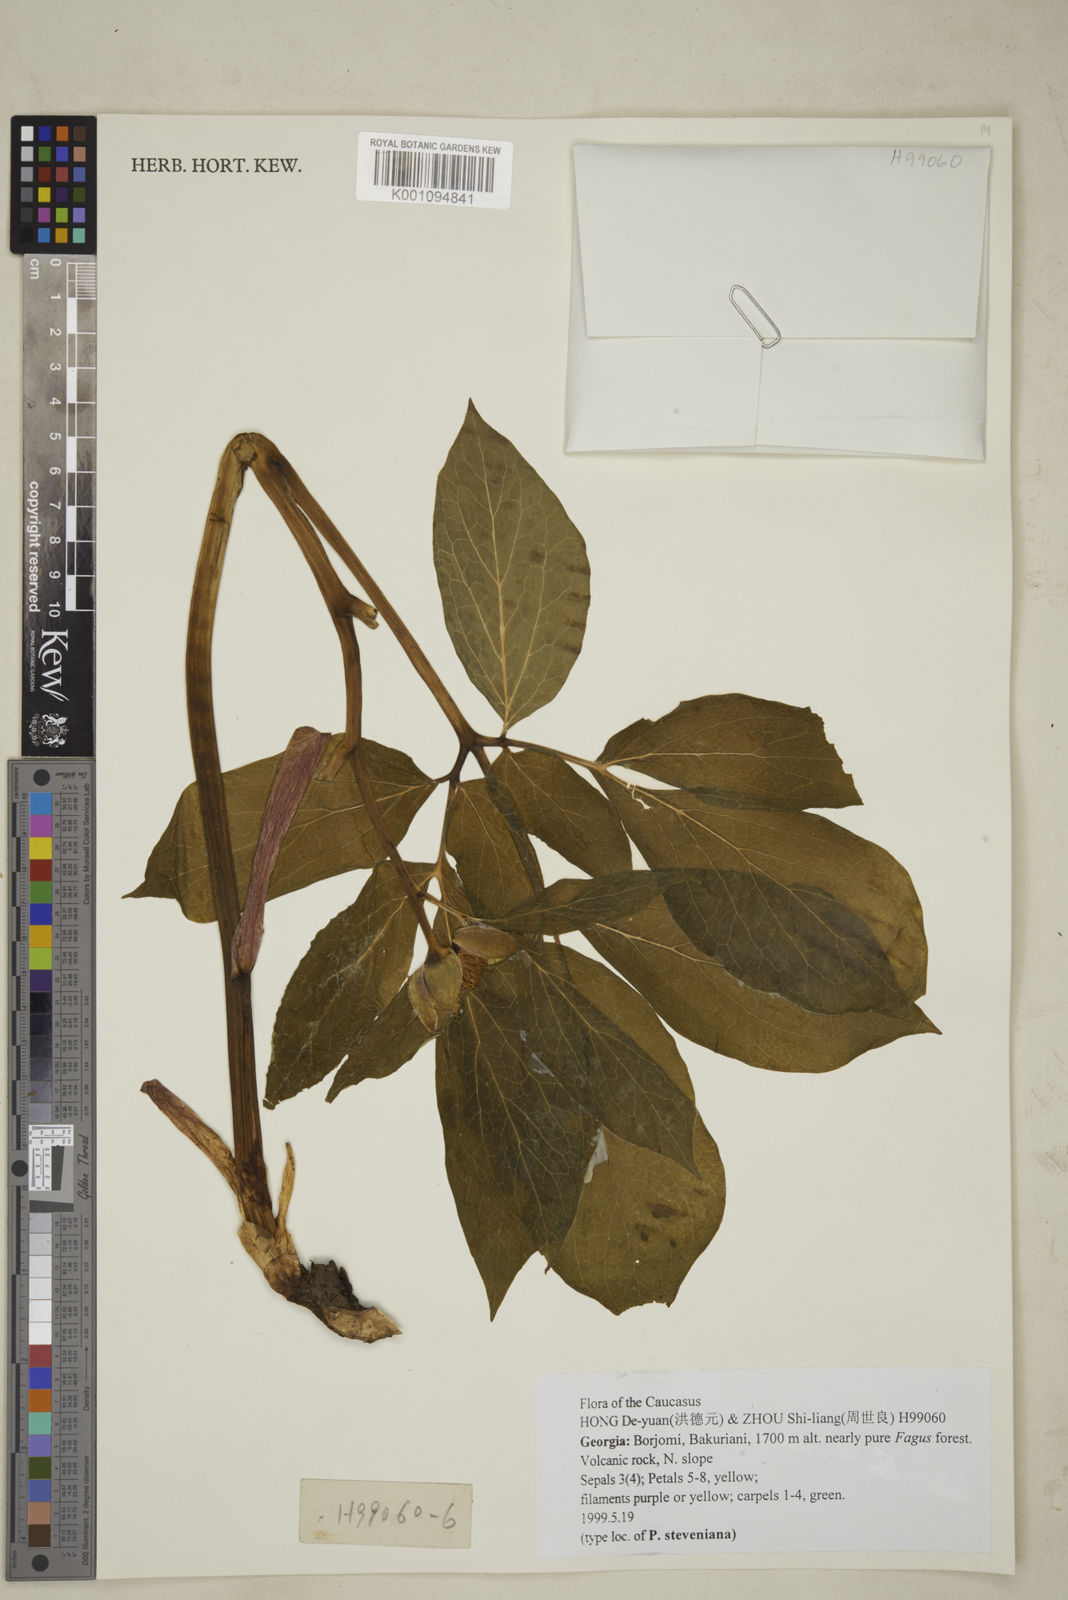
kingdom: Plantae
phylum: Tracheophyta
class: Magnoliopsida
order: Saxifragales
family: Paeoniaceae
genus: Paeonia
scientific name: Paeonia wittmanniana
